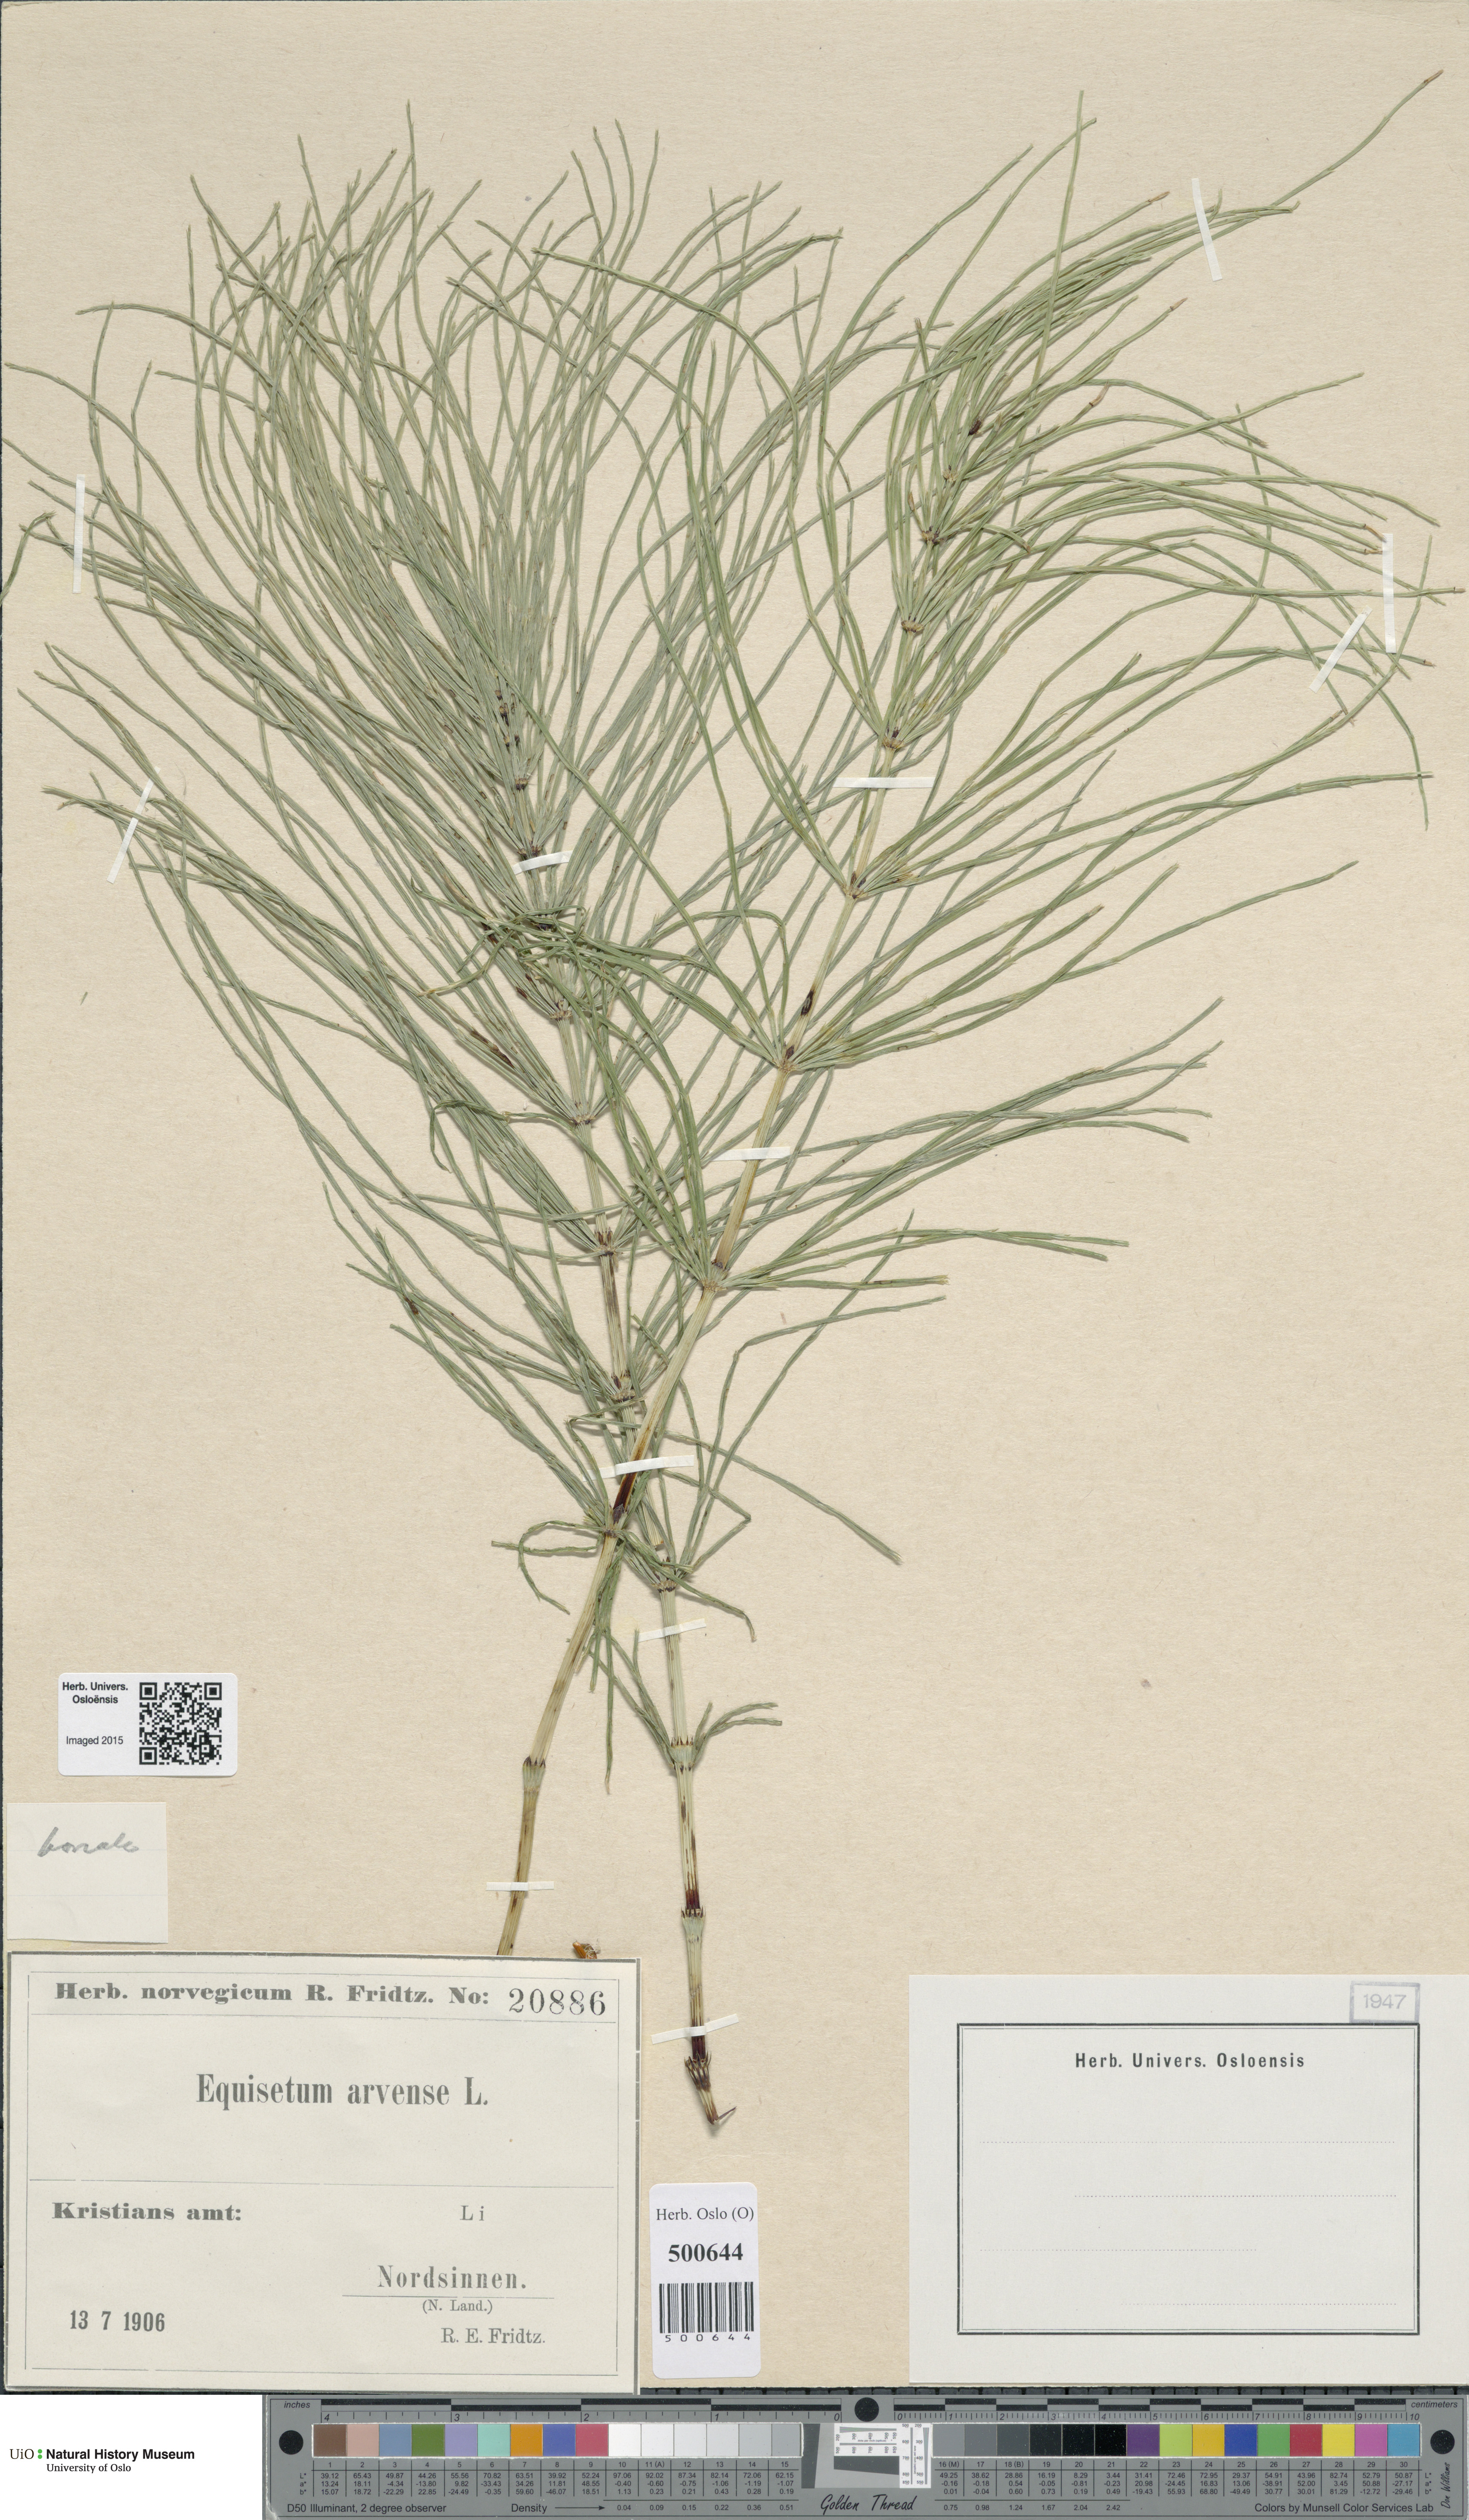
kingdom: Plantae
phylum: Tracheophyta
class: Polypodiopsida
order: Equisetales
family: Equisetaceae
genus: Equisetum
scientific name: Equisetum arvense
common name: Field horsetail
